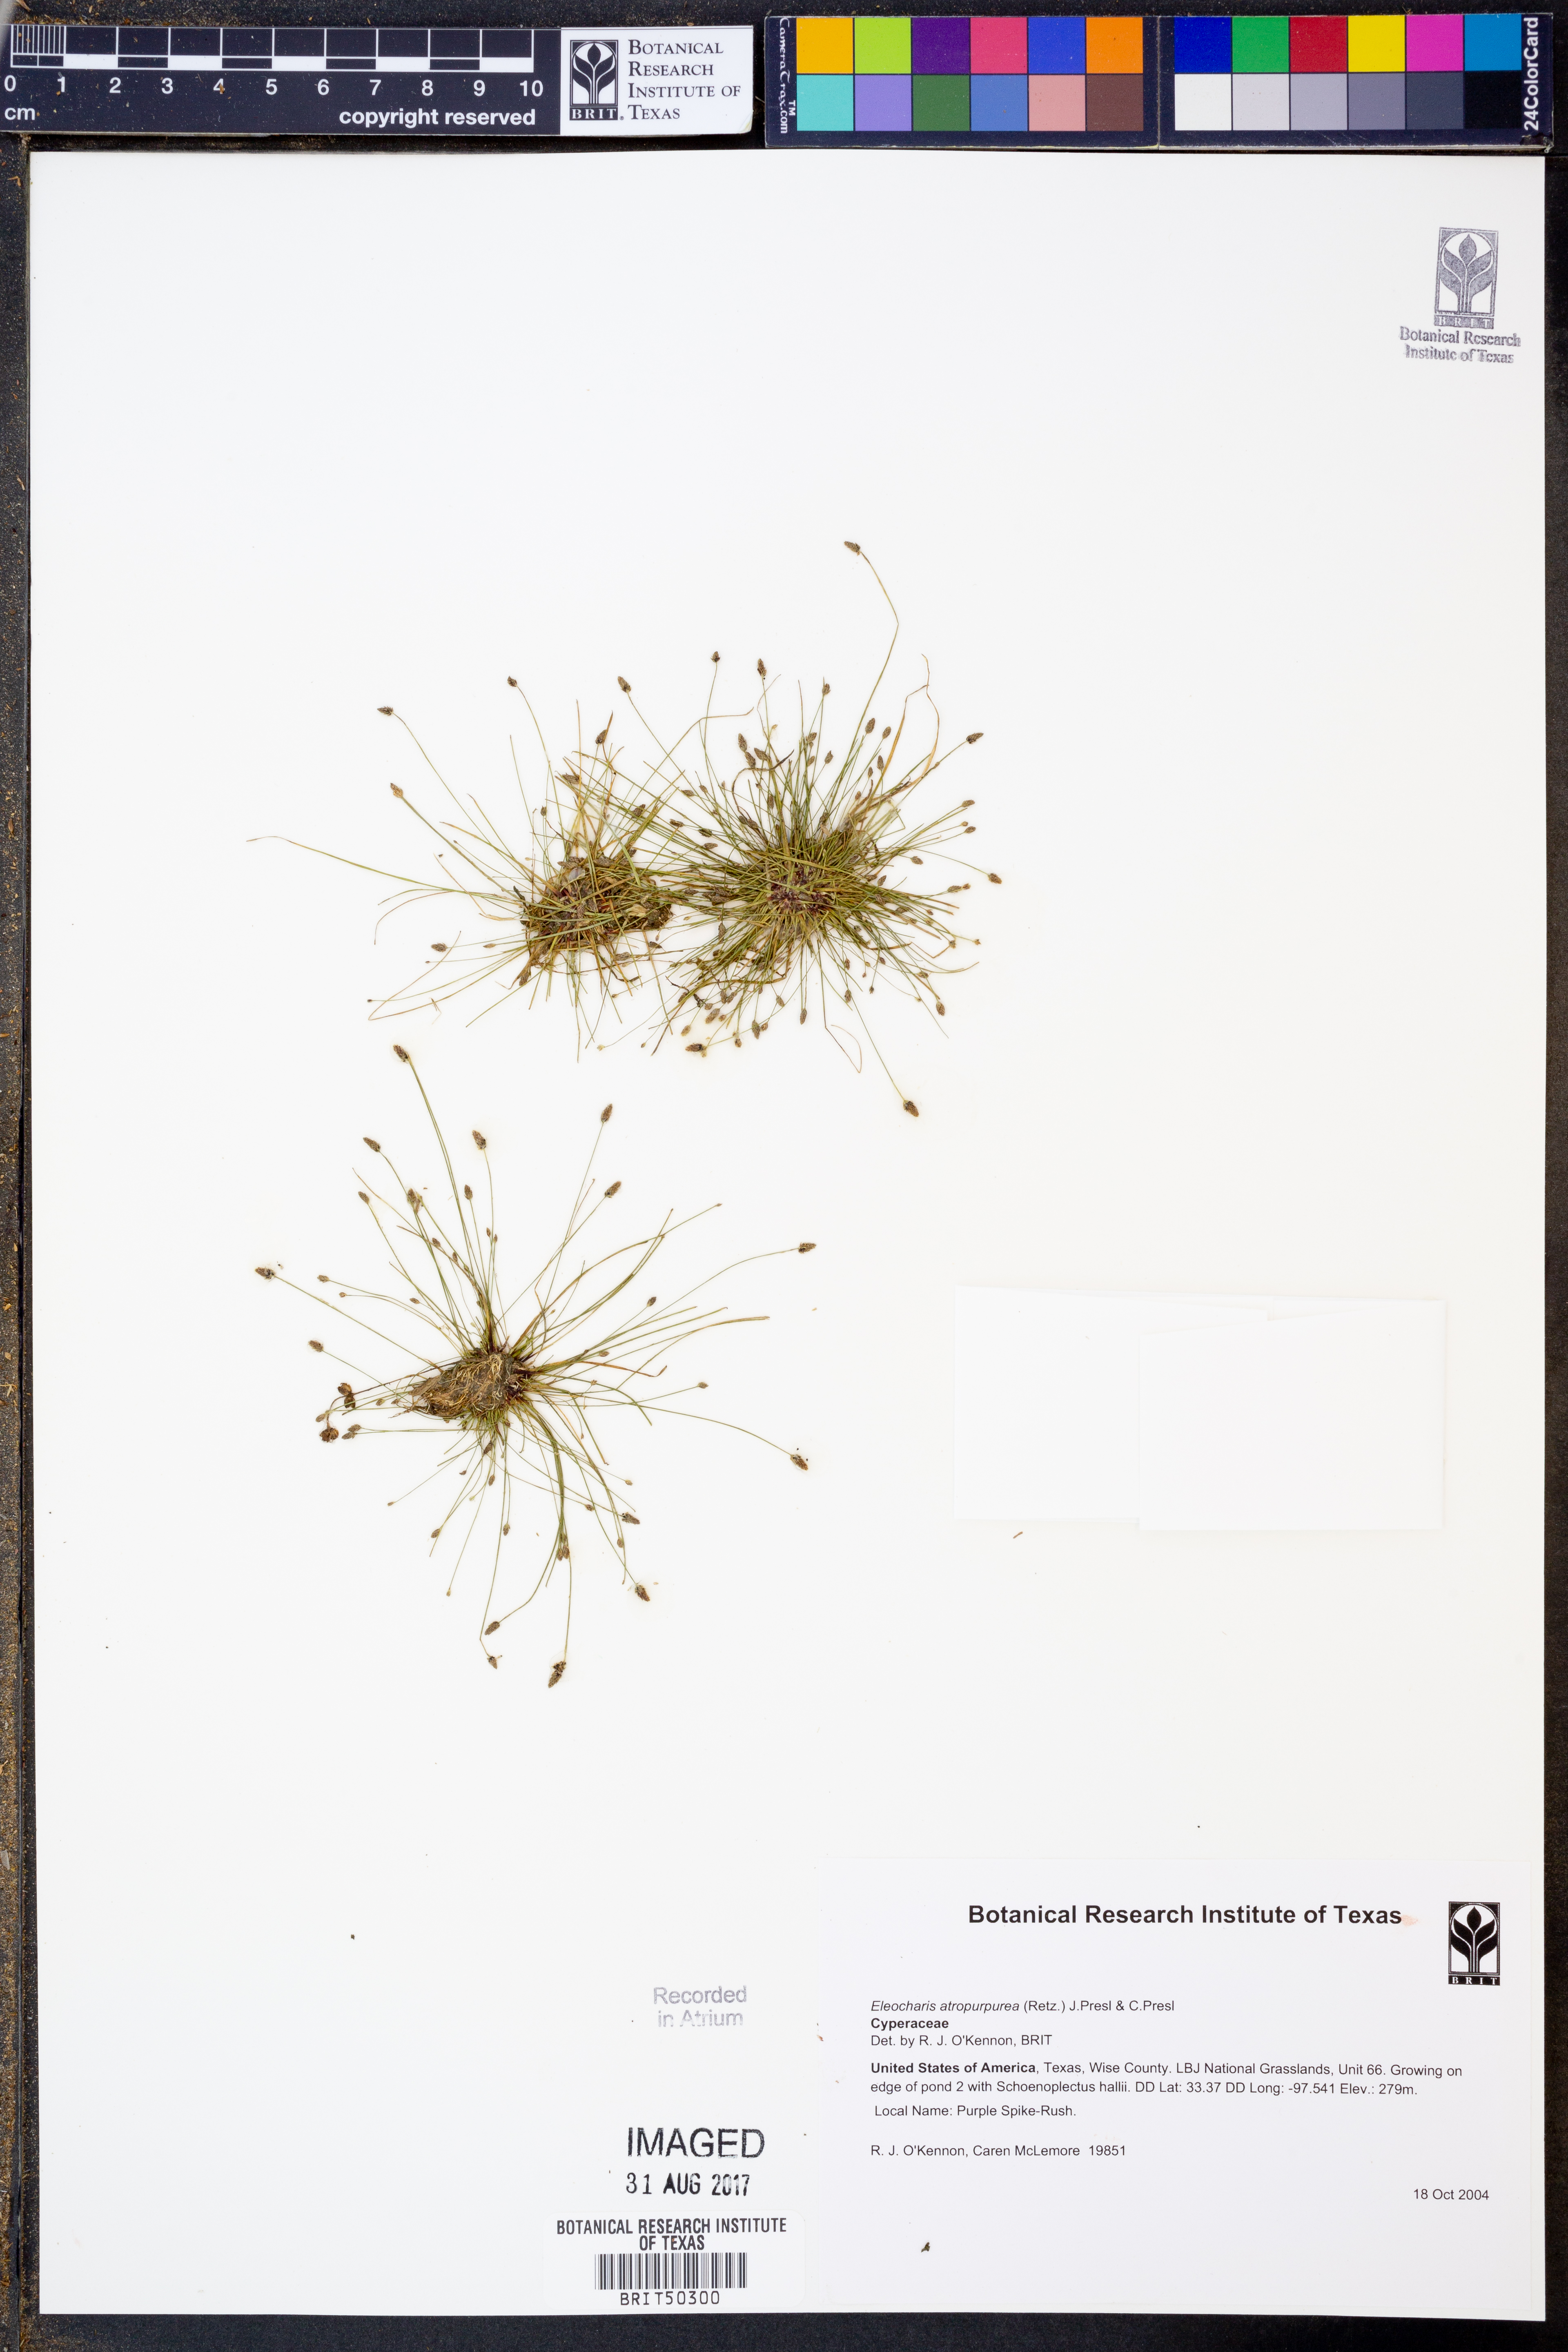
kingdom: Plantae
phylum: Tracheophyta
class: Liliopsida
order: Poales
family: Cyperaceae
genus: Eleocharis
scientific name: Eleocharis atropurpurea
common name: Purple spikerush
